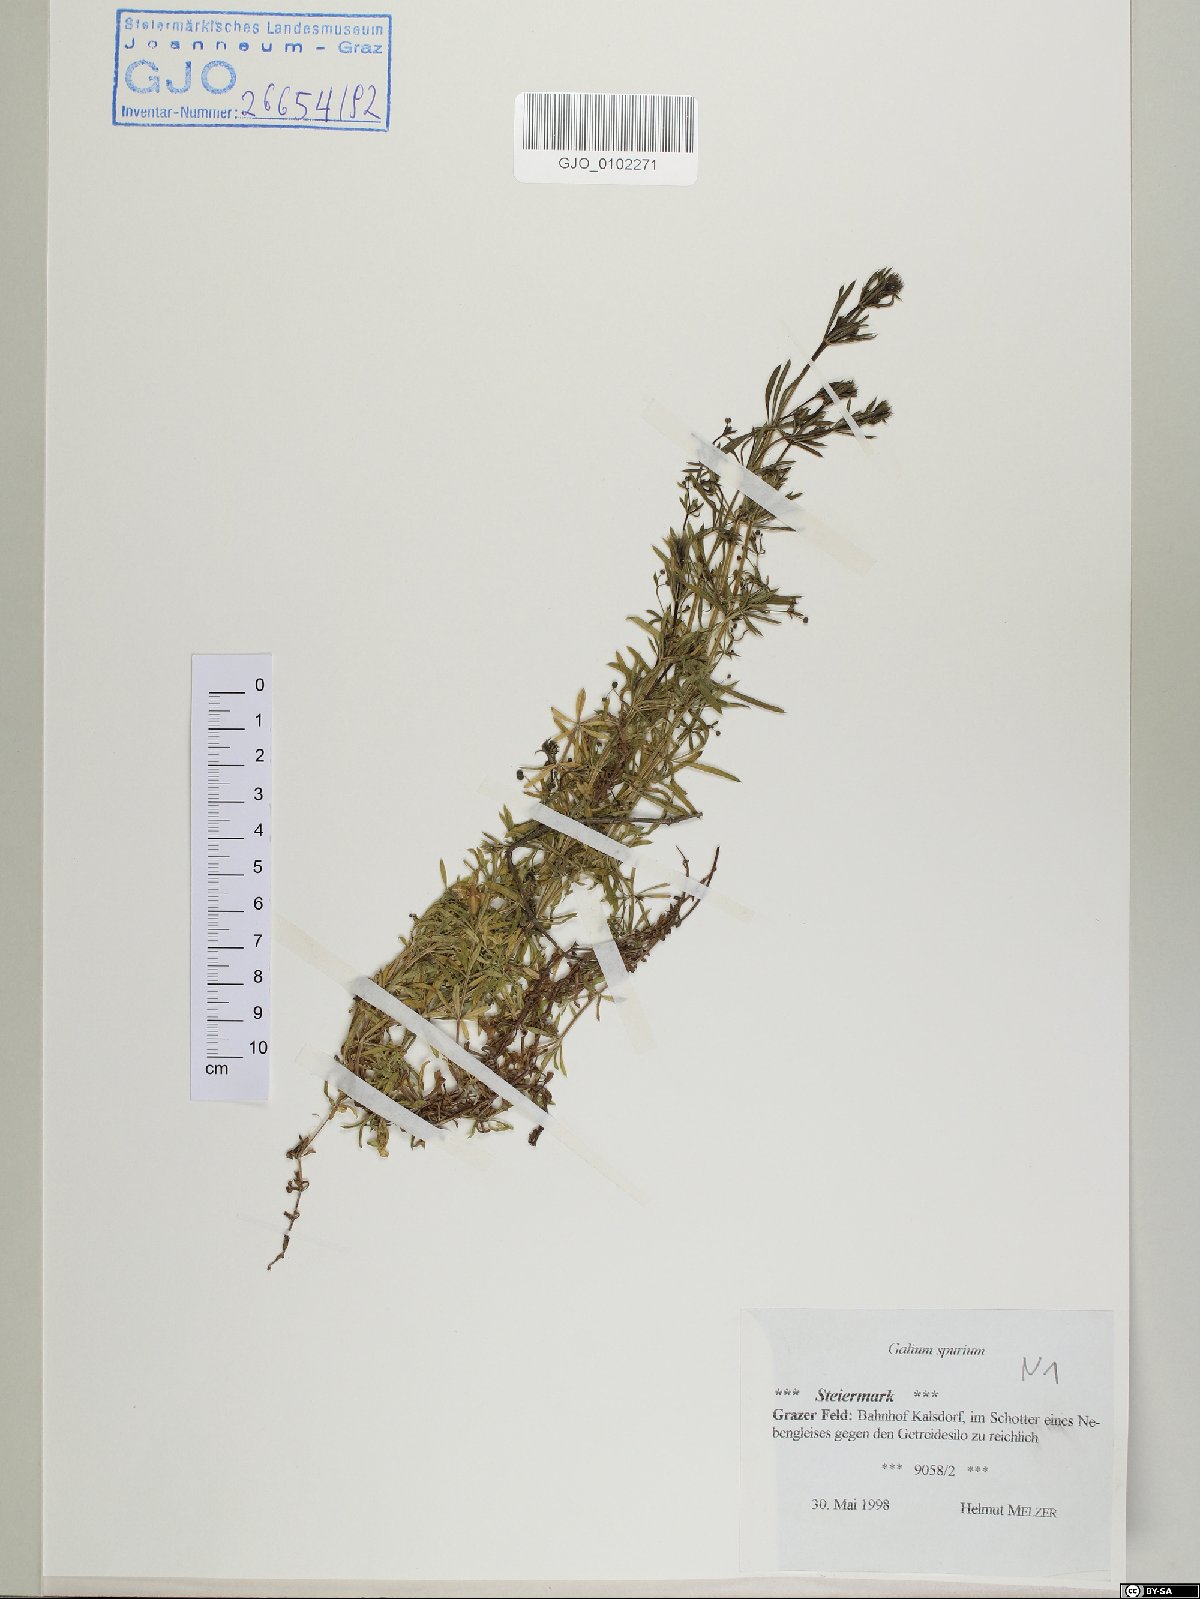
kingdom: Plantae
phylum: Tracheophyta
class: Magnoliopsida
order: Gentianales
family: Rubiaceae
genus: Galium
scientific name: Galium spurium
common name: False cleavers
